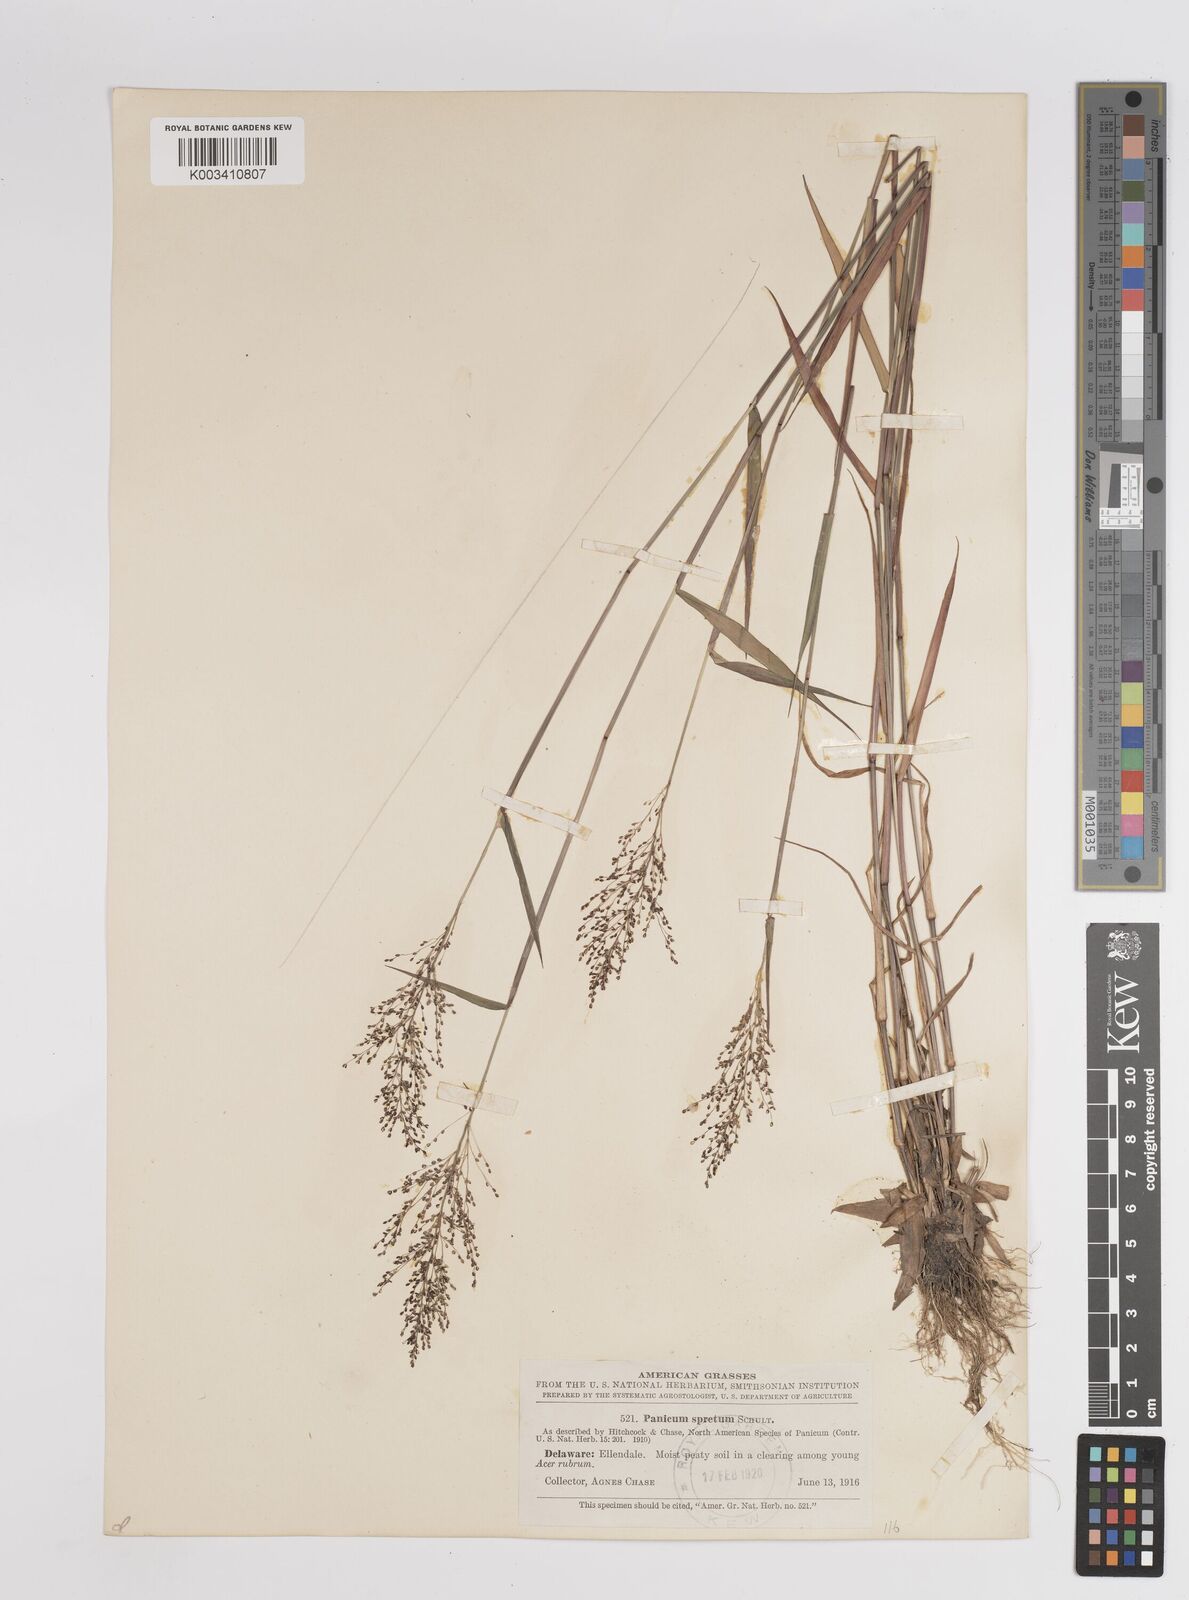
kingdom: Plantae
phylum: Tracheophyta
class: Liliopsida
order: Poales
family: Poaceae
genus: Dichanthelium
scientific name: Dichanthelium acuminatum
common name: Hairy panic grass
